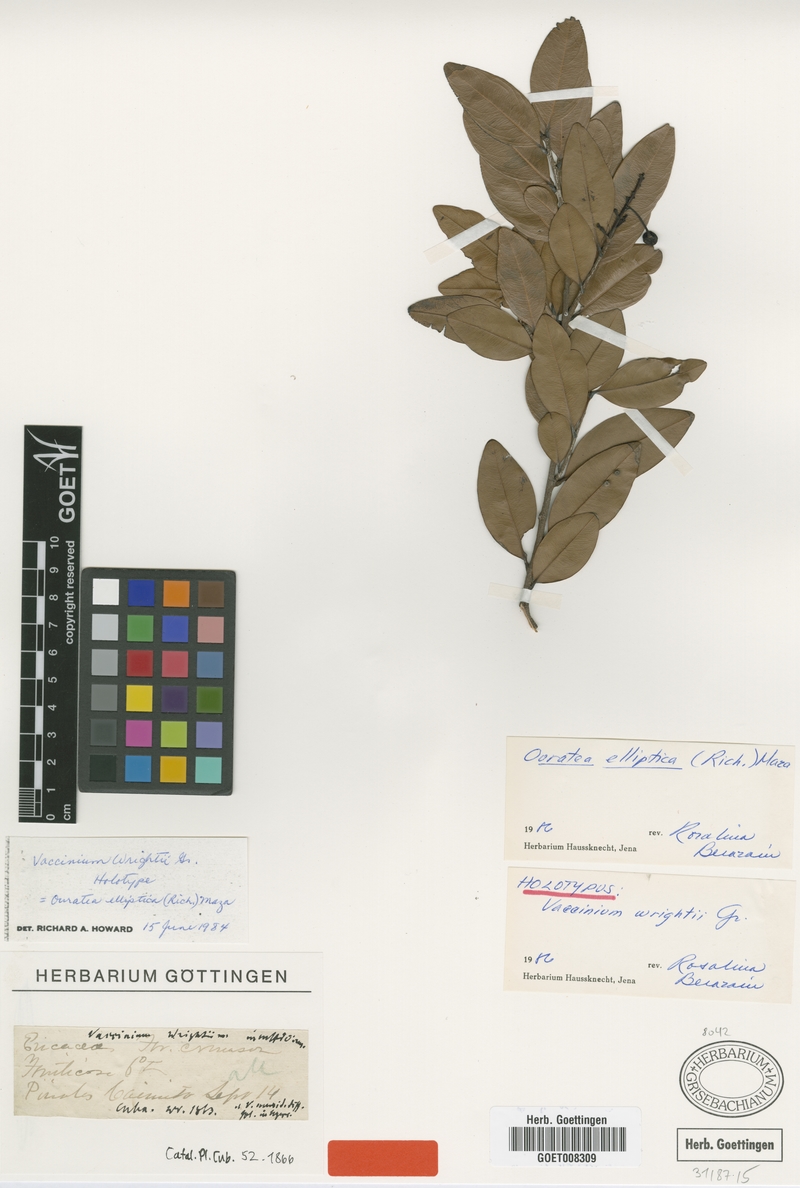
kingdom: Plantae
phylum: Tracheophyta
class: Magnoliopsida
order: Malpighiales
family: Ochnaceae
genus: Ouratea
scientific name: Ouratea elliptica
